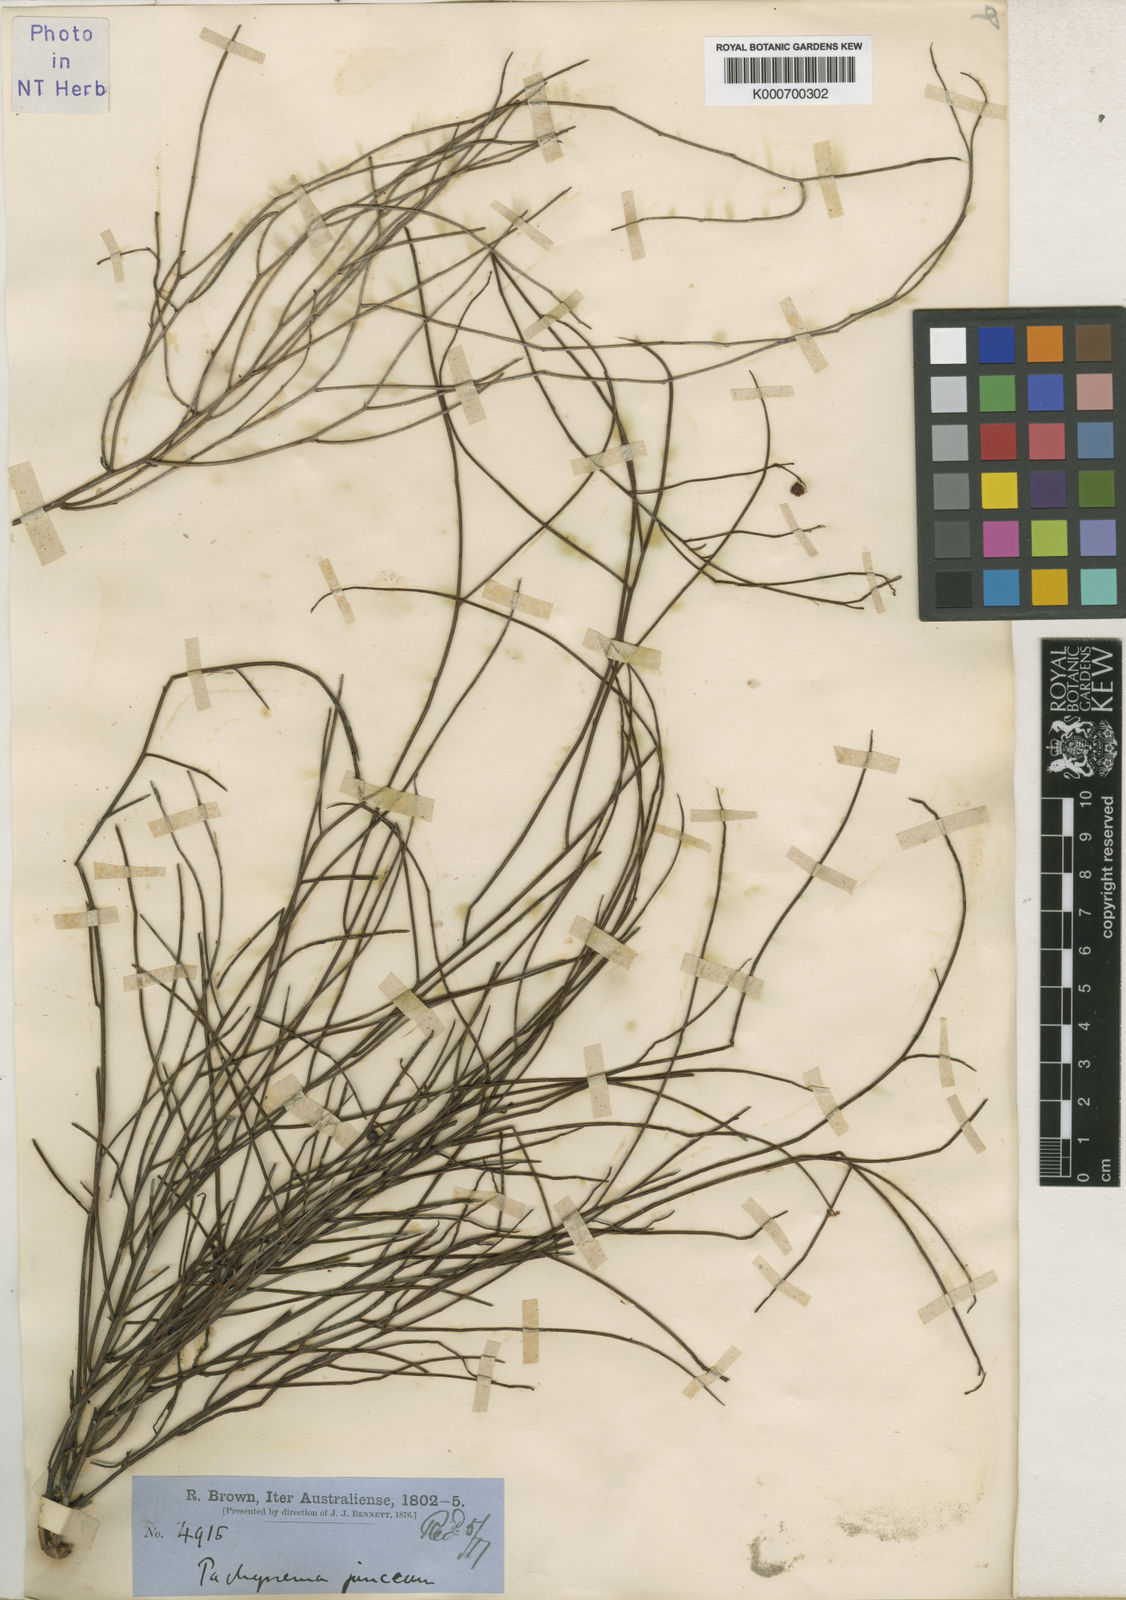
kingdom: Plantae
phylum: Tracheophyta
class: Magnoliopsida
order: Dilleniales
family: Dilleniaceae
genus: Hibbertia
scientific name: Hibbertia juncea
